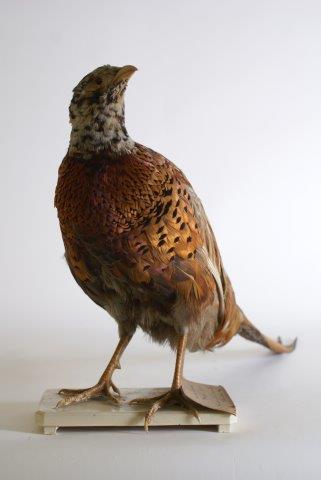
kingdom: Animalia
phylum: Chordata
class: Aves
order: Galliformes
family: Phasianidae
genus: Phasianus
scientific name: Phasianus colchicus
